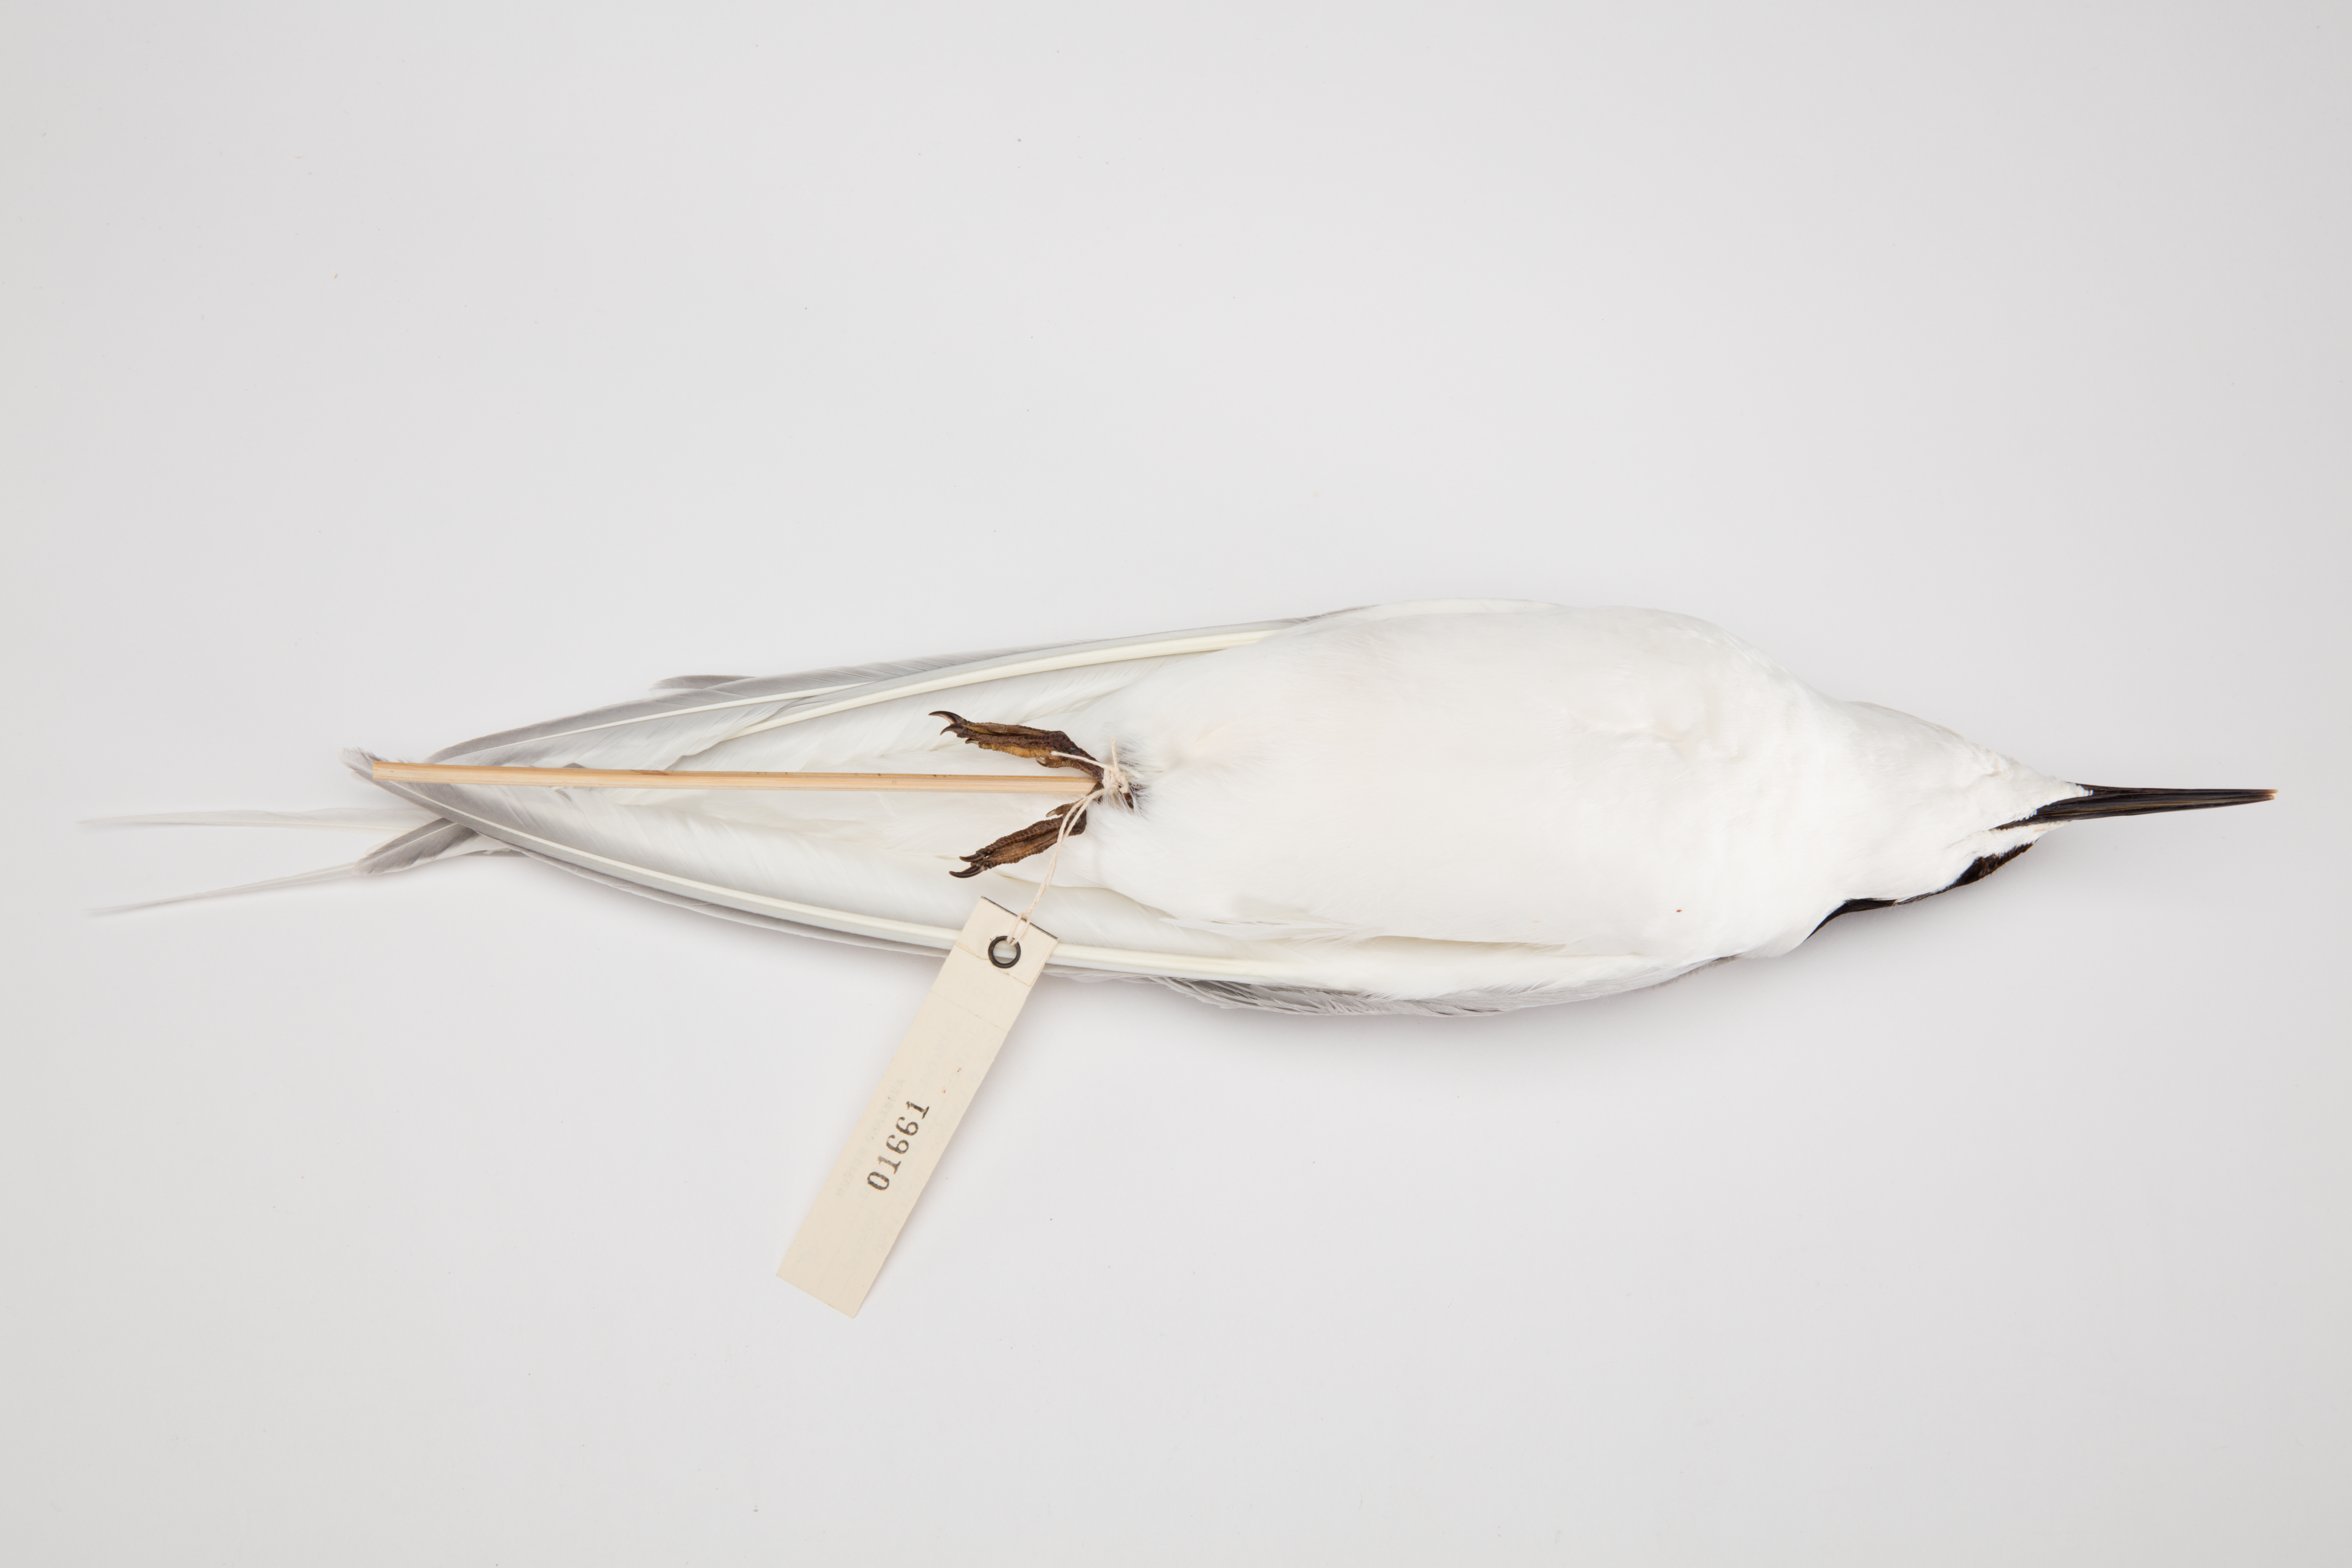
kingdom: Animalia
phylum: Chordata
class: Aves
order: Charadriiformes
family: Laridae
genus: Sterna
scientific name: Sterna striata
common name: White-fronted tern
